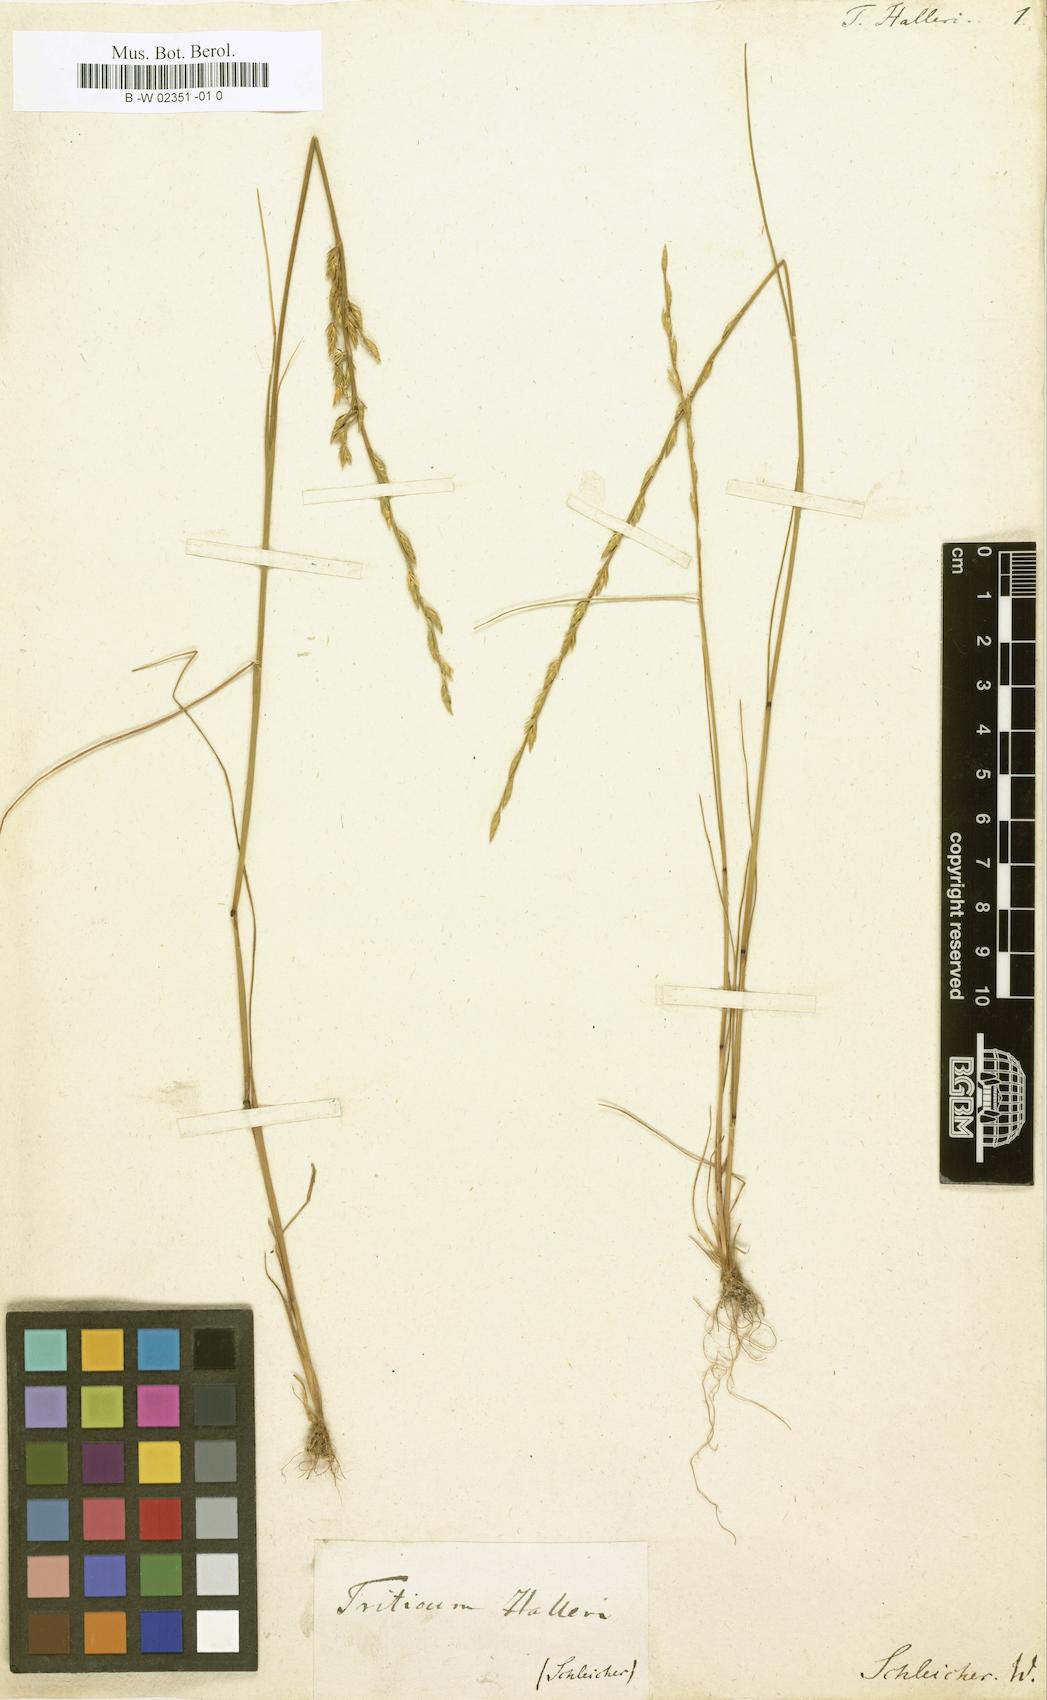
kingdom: Plantae
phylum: Tracheophyta
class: Liliopsida
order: Poales
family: Poaceae
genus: Festuca
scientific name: Festuca lachenalii
